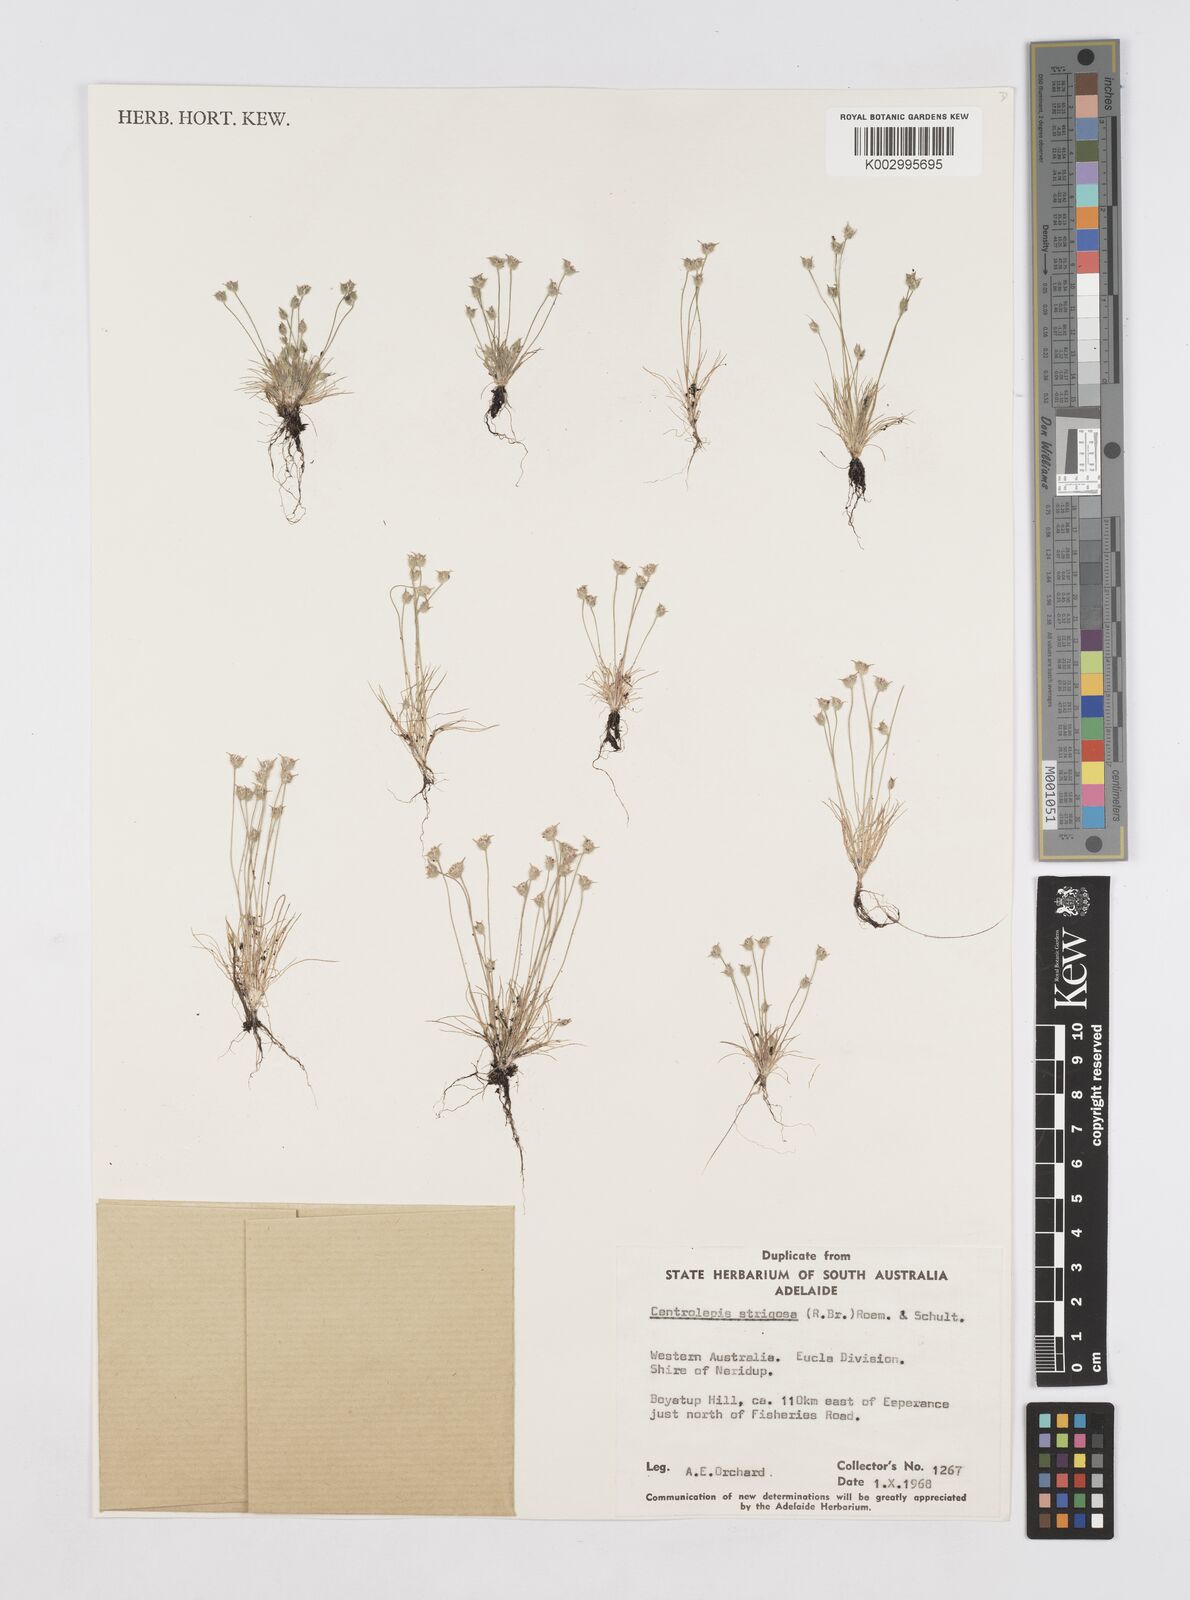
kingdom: Plantae
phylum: Tracheophyta
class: Liliopsida
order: Poales
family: Restionaceae
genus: Centrolepis
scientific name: Centrolepis strigosa
